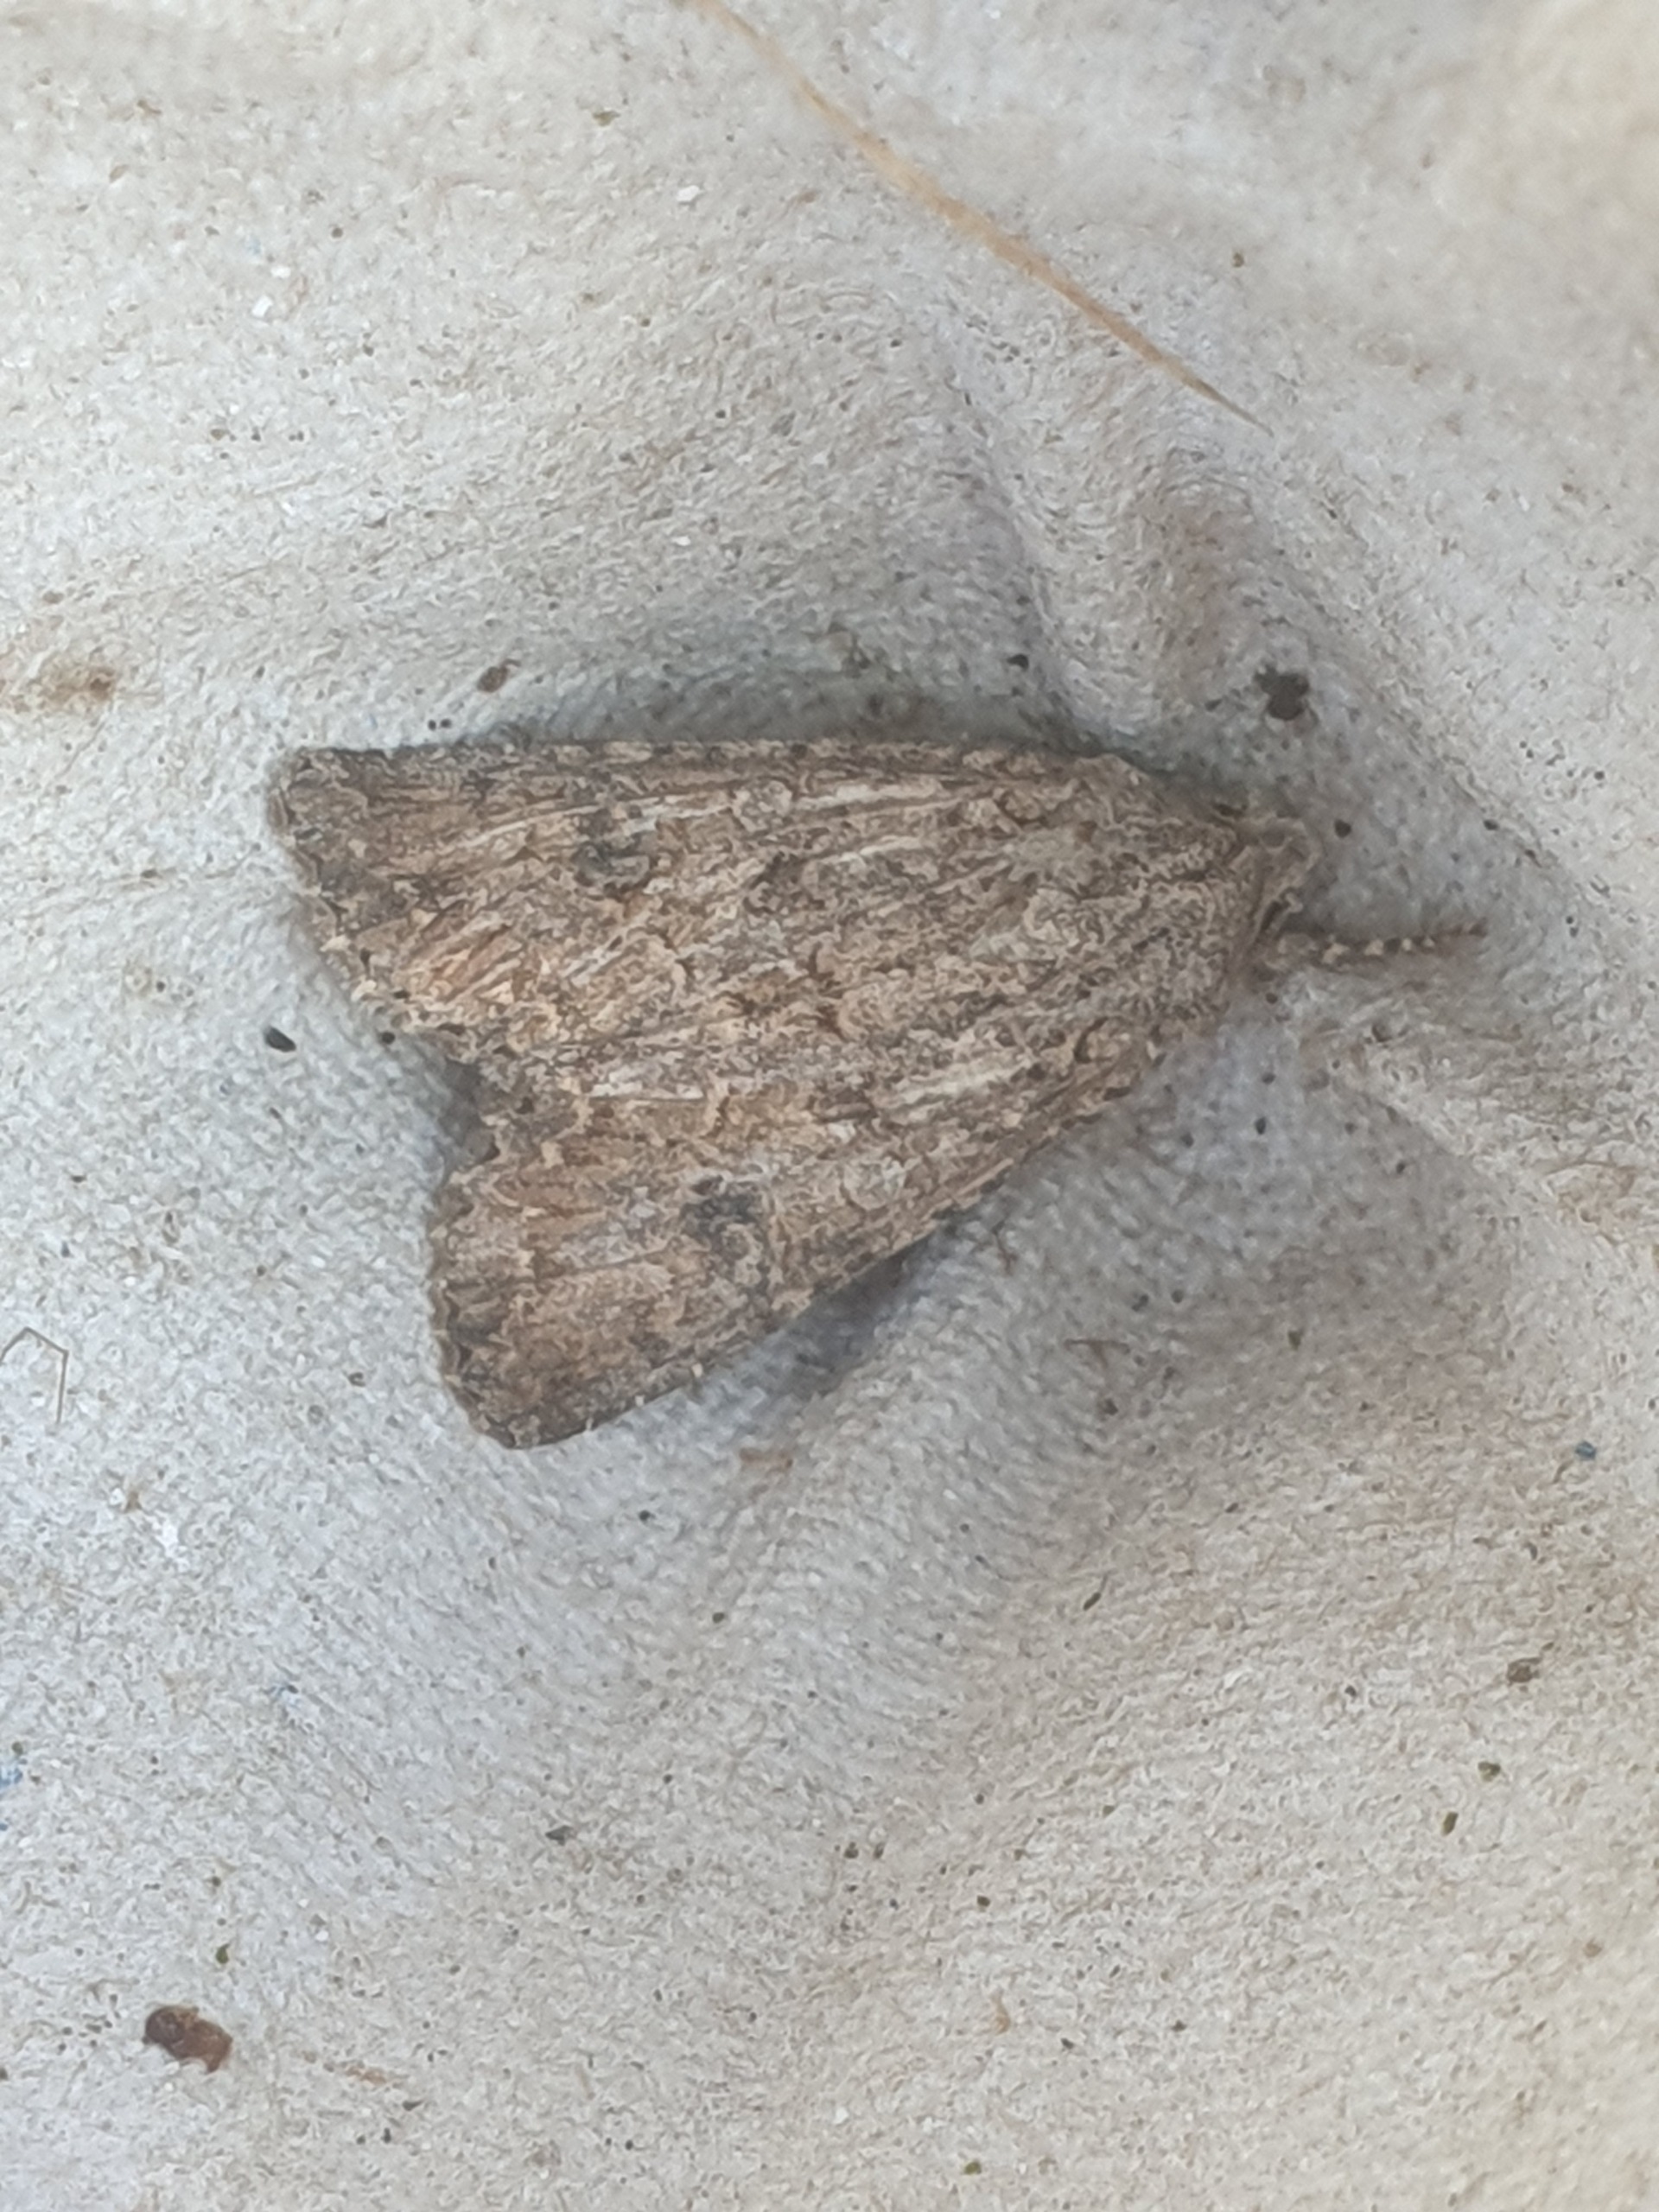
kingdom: Animalia
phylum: Arthropoda
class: Insecta
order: Lepidoptera
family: Noctuidae
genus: Anarta
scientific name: Anarta trifolii
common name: Bedeugle
